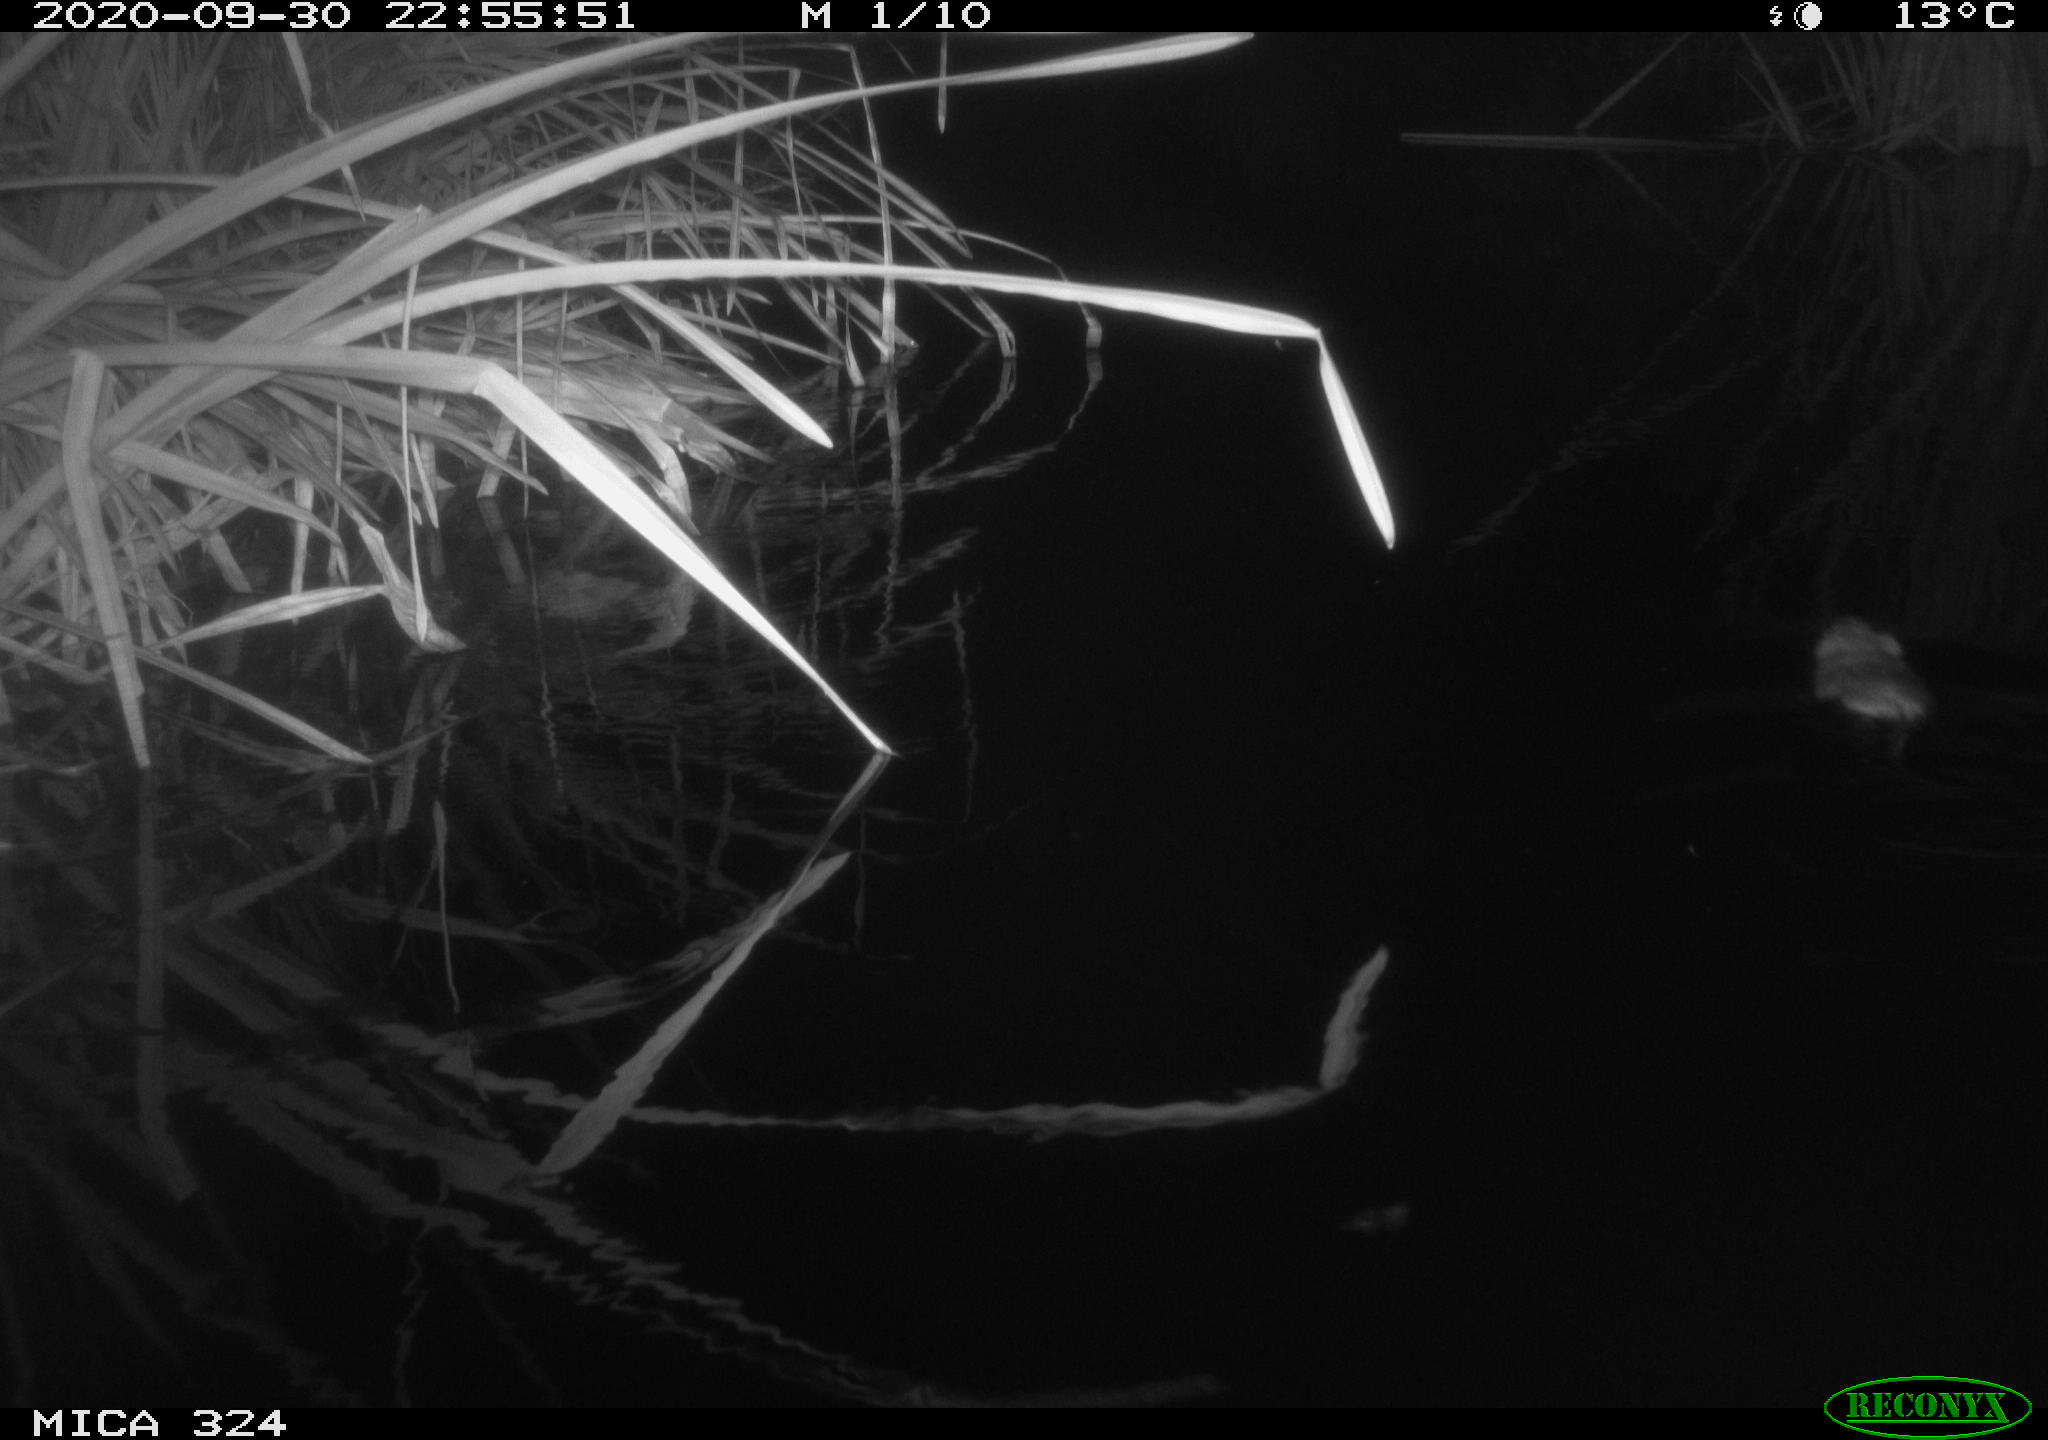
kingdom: Animalia
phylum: Chordata
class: Mammalia
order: Rodentia
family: Cricetidae
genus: Ondatra
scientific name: Ondatra zibethicus
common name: Muskrat
